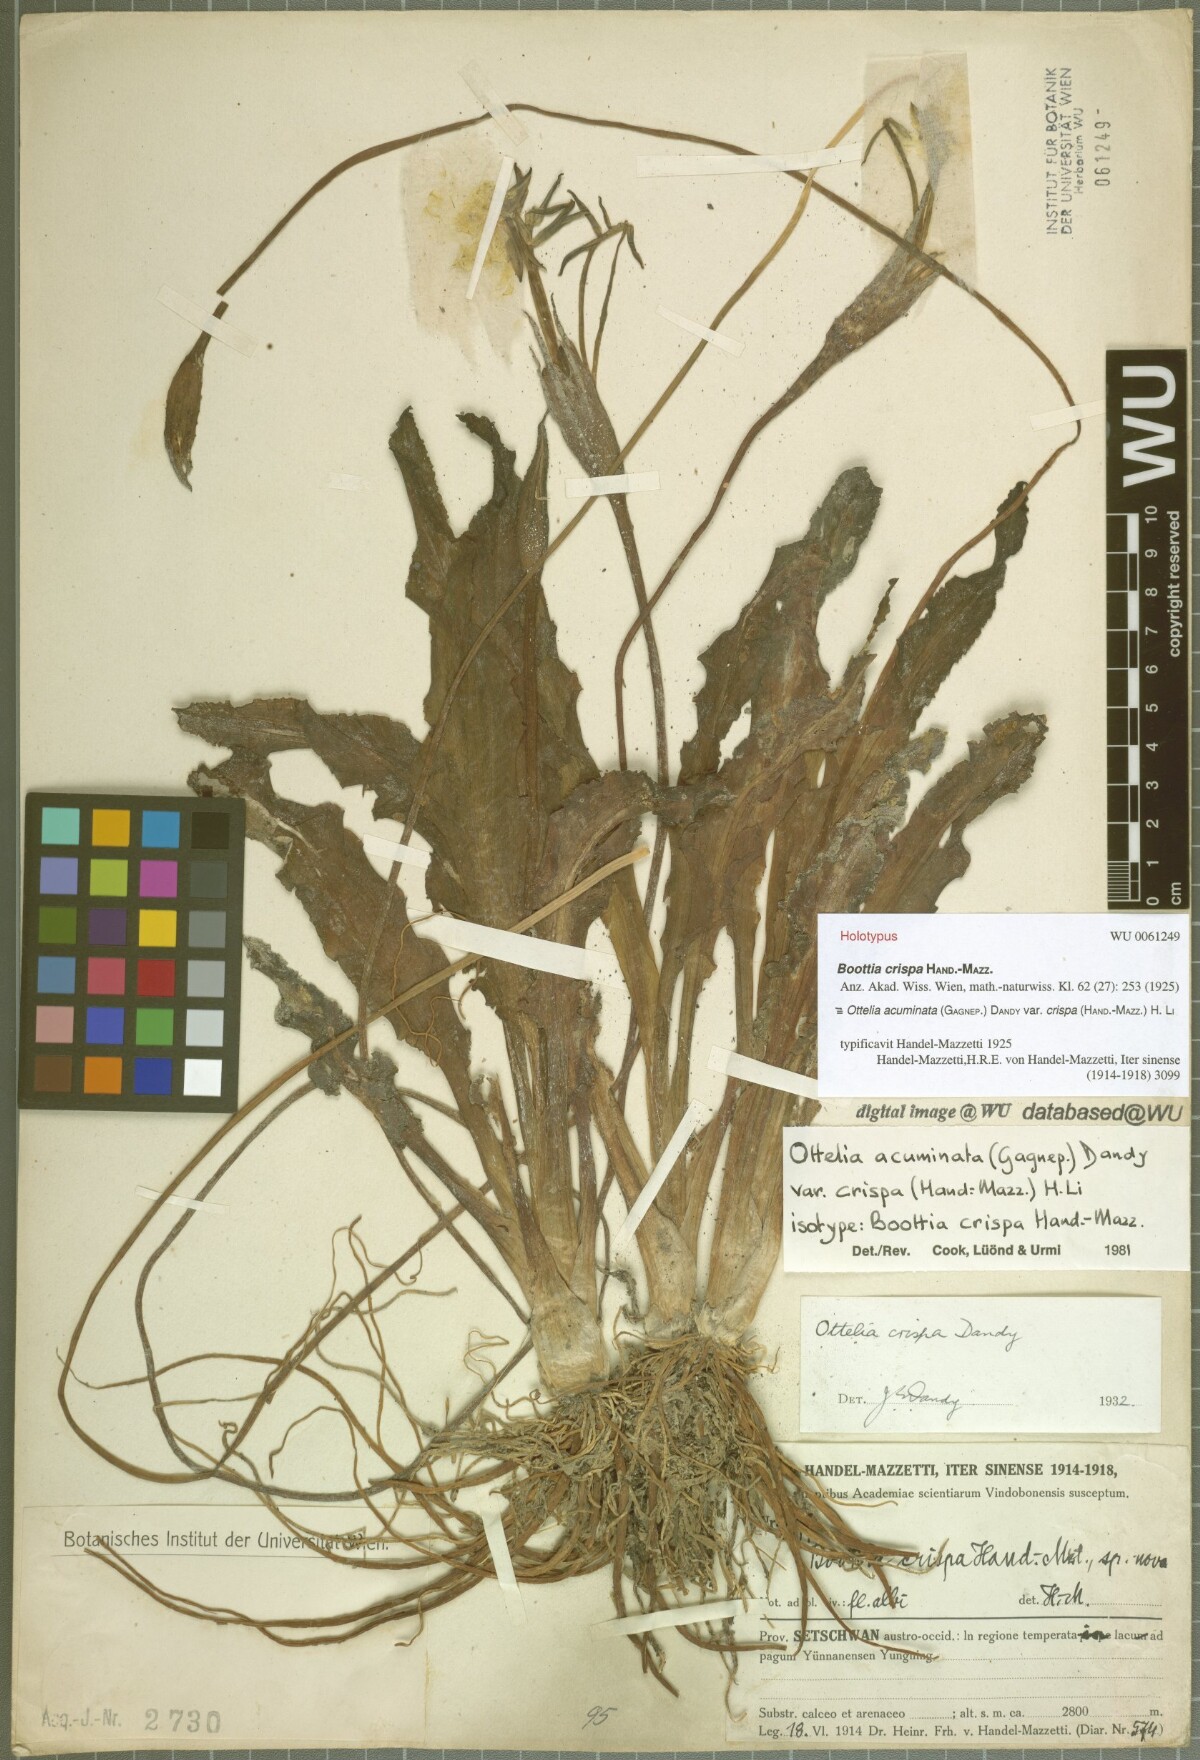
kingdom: Plantae
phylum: Tracheophyta
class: Liliopsida
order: Alismatales
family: Hydrocharitaceae
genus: Ottelia
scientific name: Ottelia acuminata
